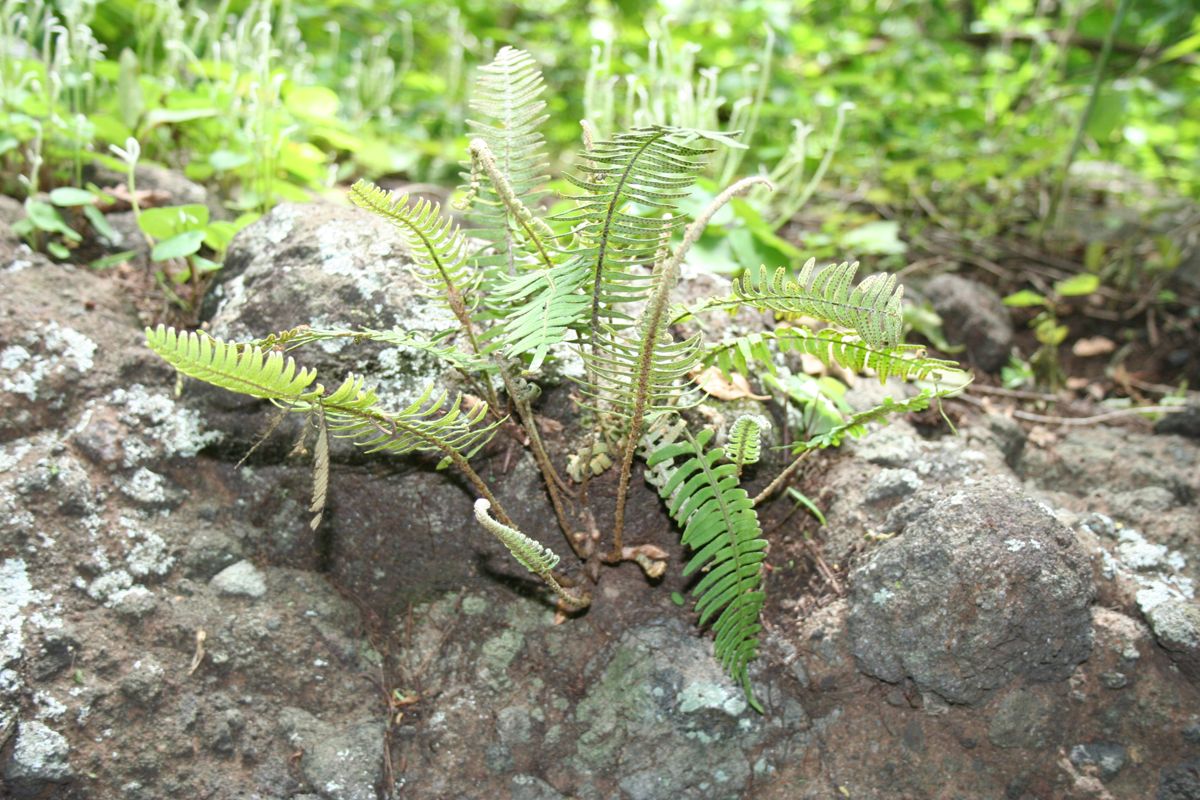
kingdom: Plantae
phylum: Tracheophyta
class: Polypodiopsida
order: Polypodiales
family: Polypodiaceae
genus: Pleopeltis
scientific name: Pleopeltis furfuracea
